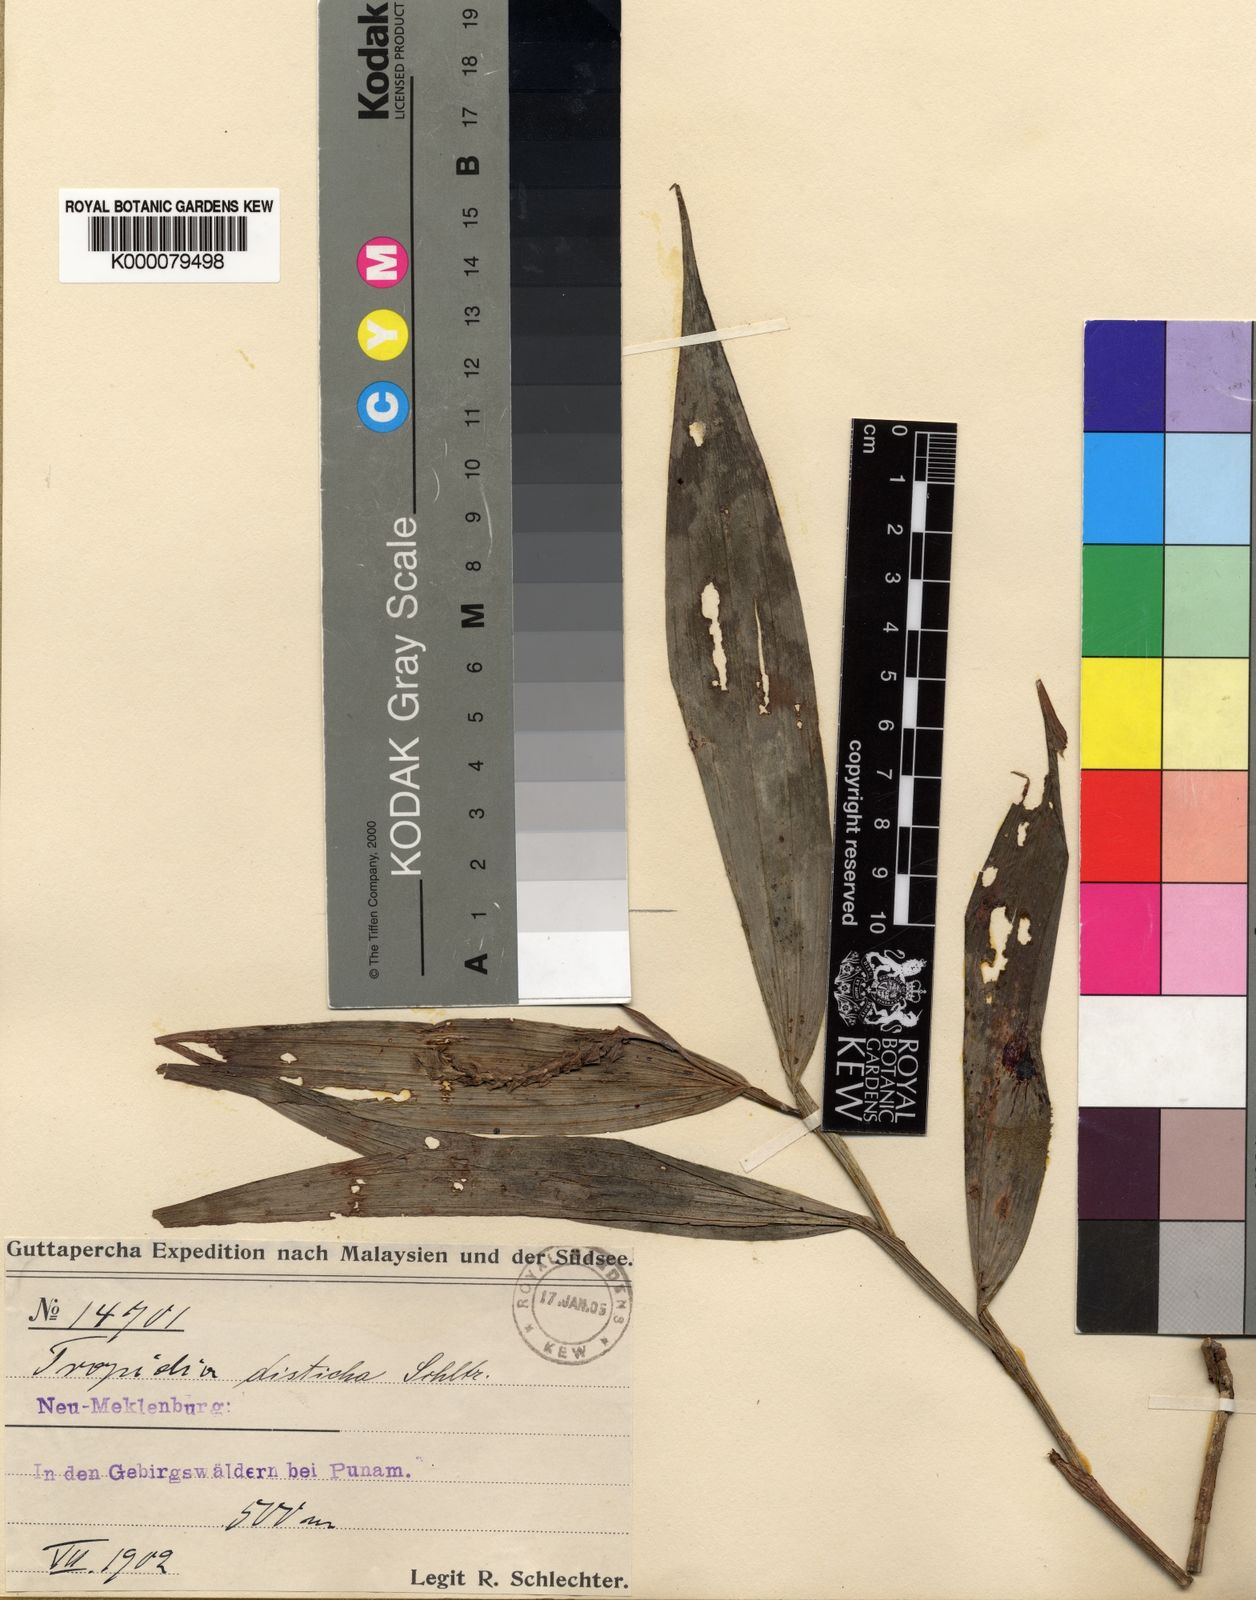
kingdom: Plantae
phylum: Tracheophyta
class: Liliopsida
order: Asparagales
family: Orchidaceae
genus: Tropidia
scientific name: Tropidia disticha
